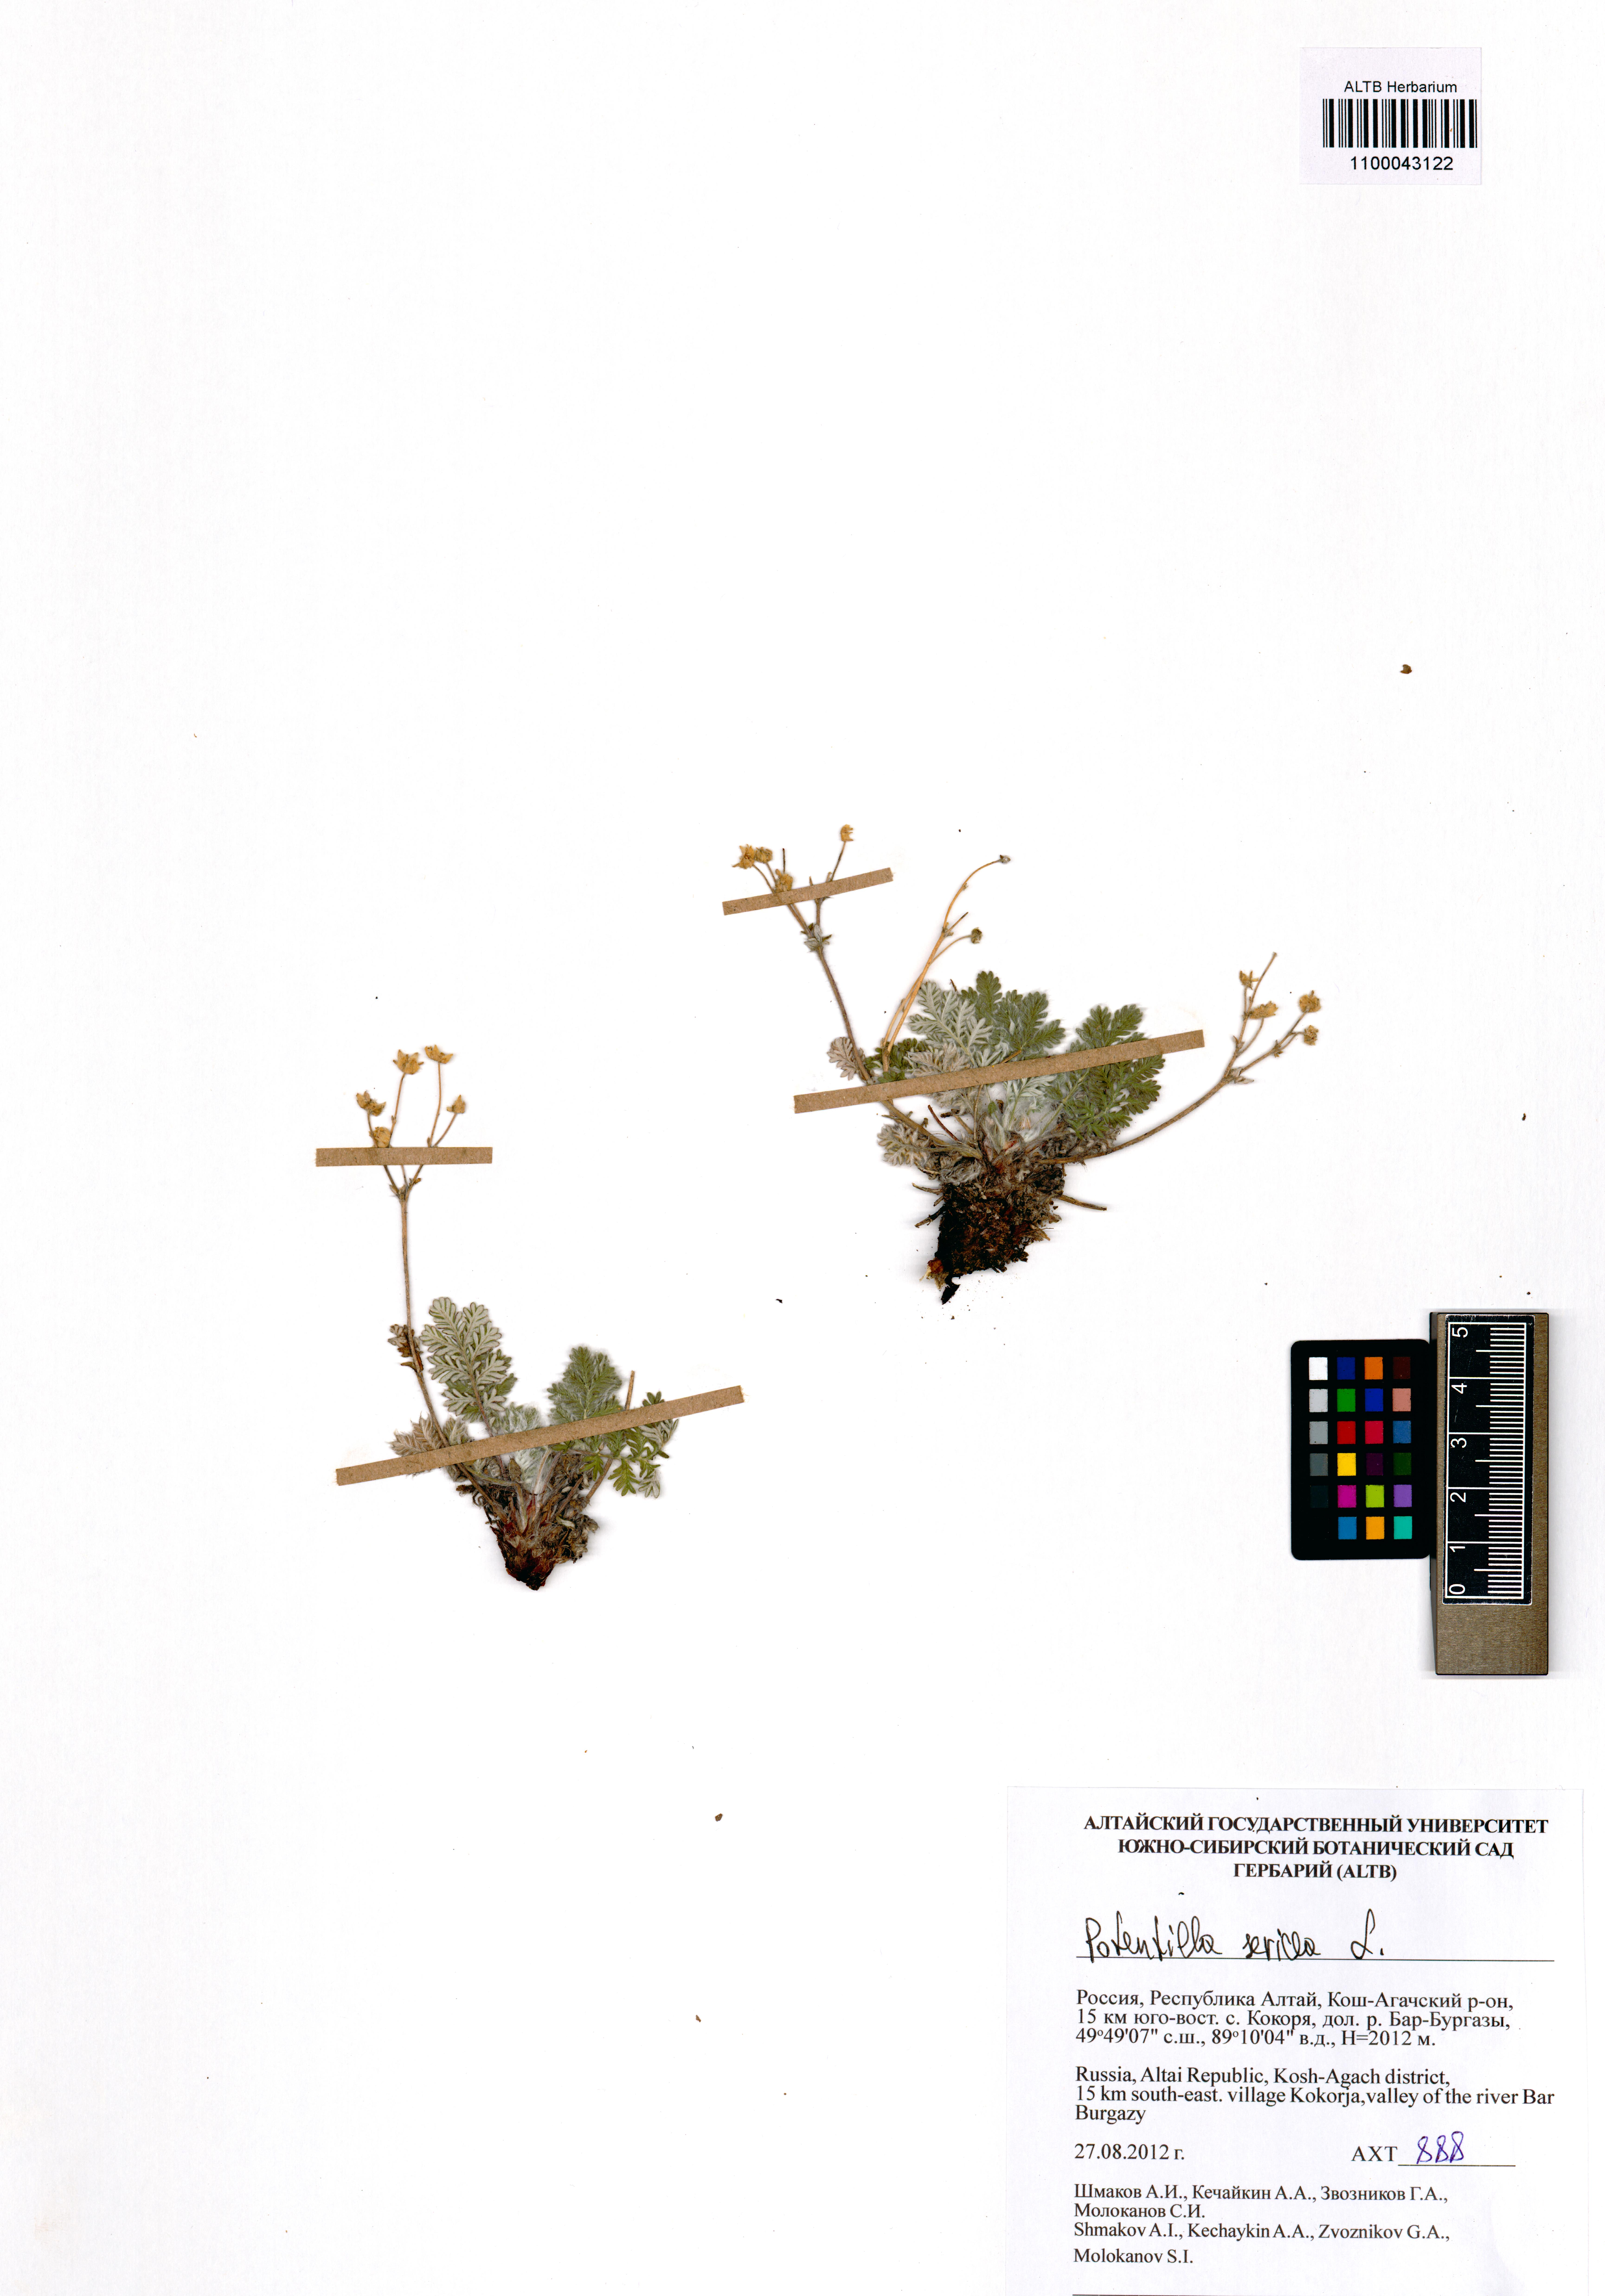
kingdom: Plantae
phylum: Tracheophyta
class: Magnoliopsida
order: Rosales
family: Rosaceae
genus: Potentilla
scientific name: Potentilla sericea
